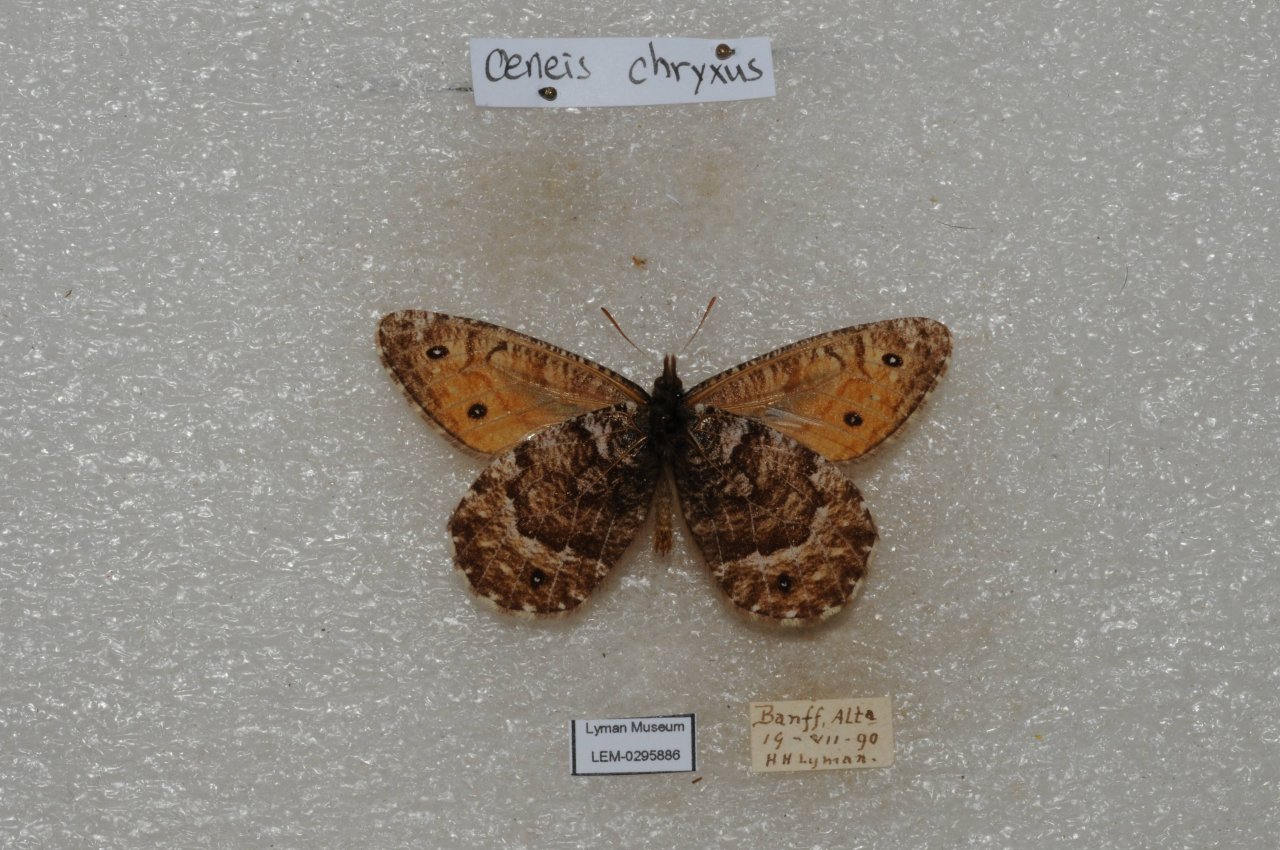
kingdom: Animalia
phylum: Arthropoda
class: Insecta
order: Lepidoptera
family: Nymphalidae
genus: Oeneis
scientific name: Oeneis chryxus
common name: Chryxus Arctic
